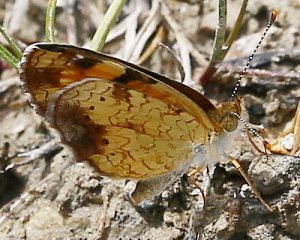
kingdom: Animalia
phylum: Arthropoda
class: Insecta
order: Lepidoptera
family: Nymphalidae
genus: Phyciodes
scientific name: Phyciodes tharos
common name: Northern Crescent
